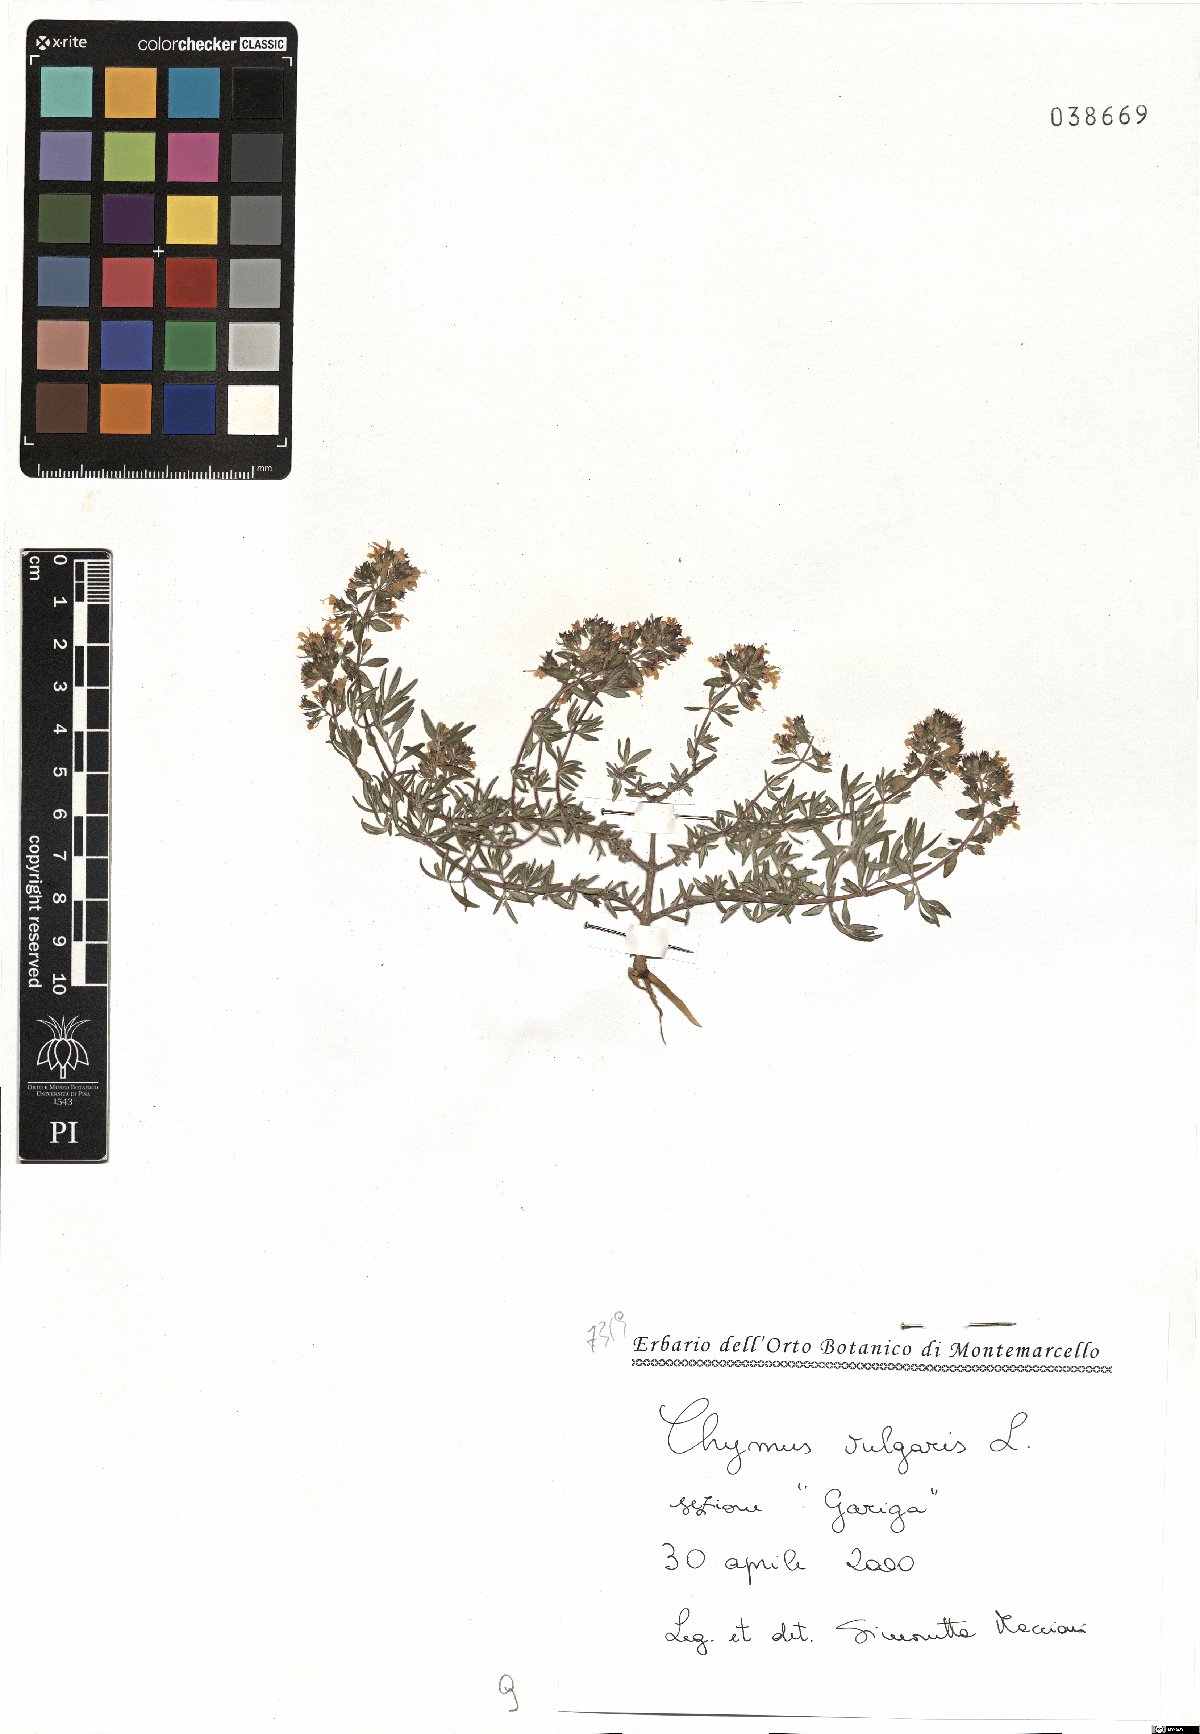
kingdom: Plantae
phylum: Tracheophyta
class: Magnoliopsida
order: Lamiales
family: Lamiaceae
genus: Thymus
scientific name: Thymus vulgaris
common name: Garden thyme
